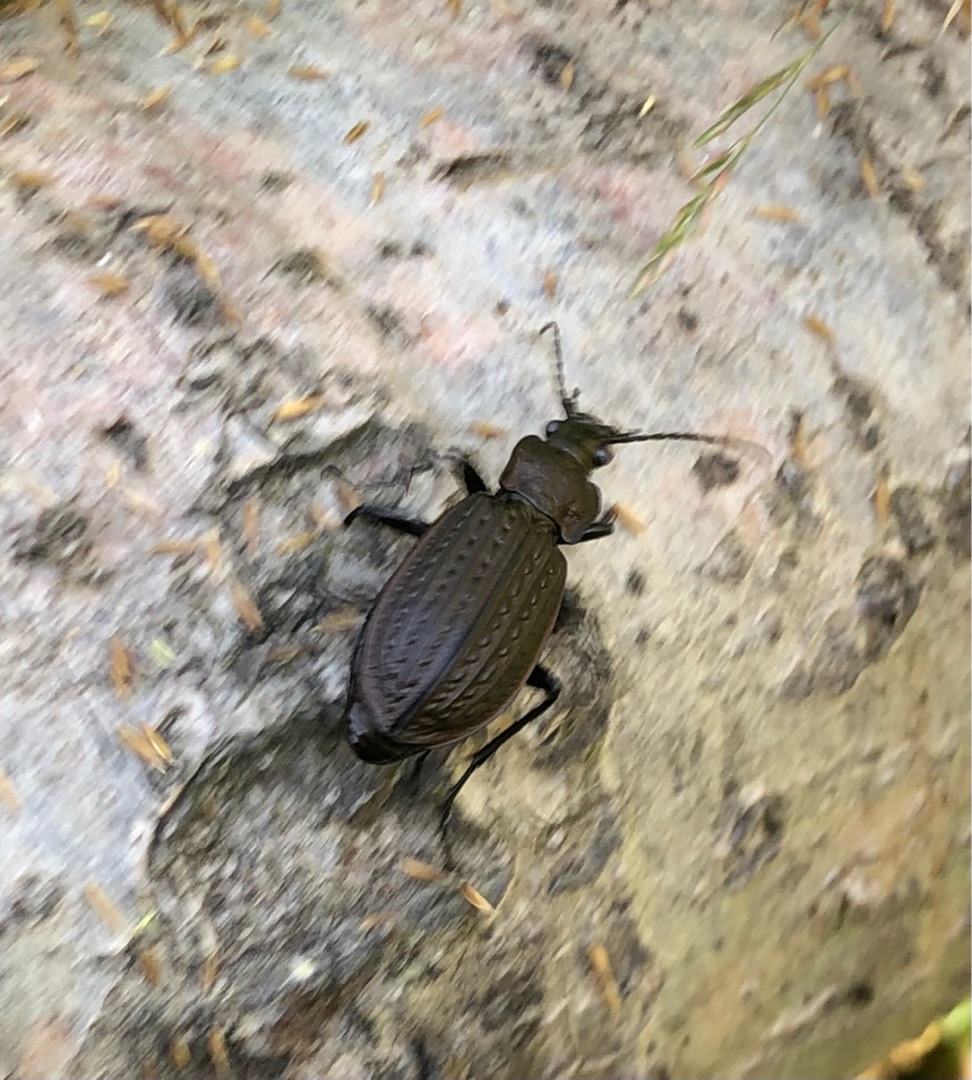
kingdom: Animalia
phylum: Arthropoda
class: Insecta
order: Coleoptera
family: Carabidae
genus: Carabus
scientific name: Carabus granulatus
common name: Kornet løber
